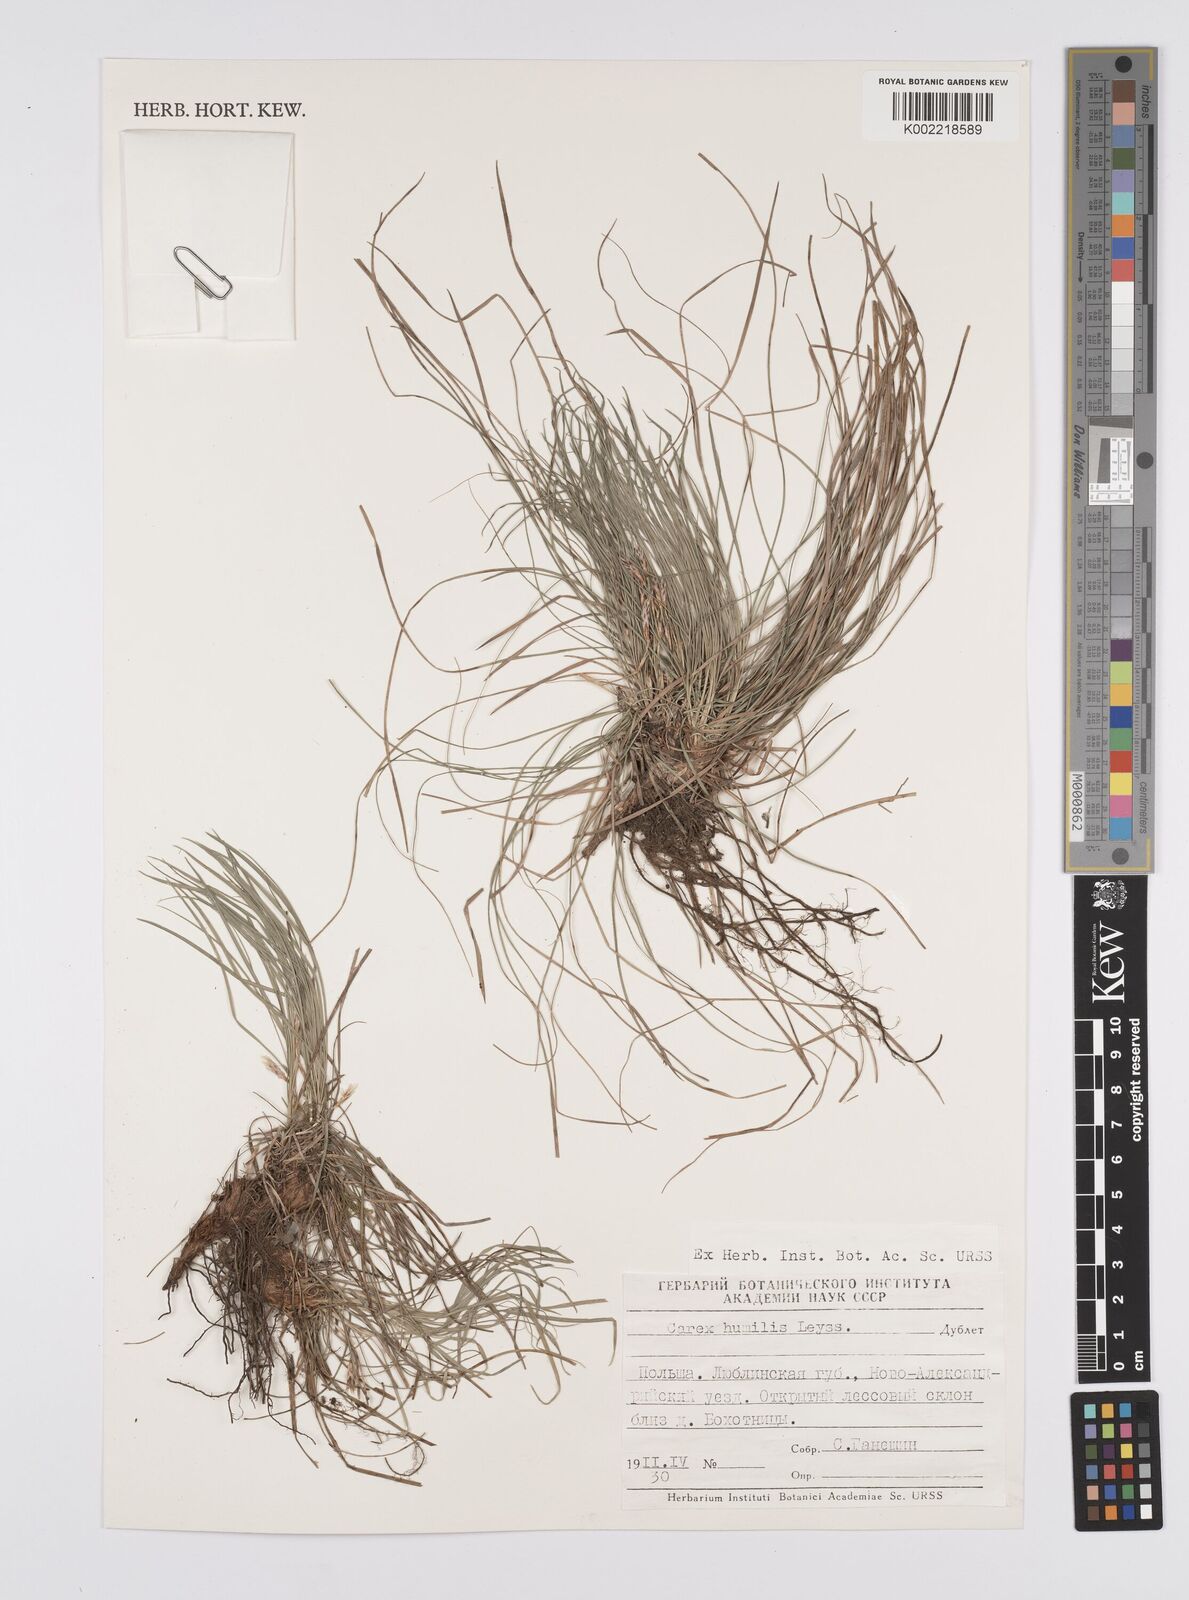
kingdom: Plantae
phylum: Tracheophyta
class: Liliopsida
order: Poales
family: Cyperaceae
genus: Carex
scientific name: Carex lanceolata
